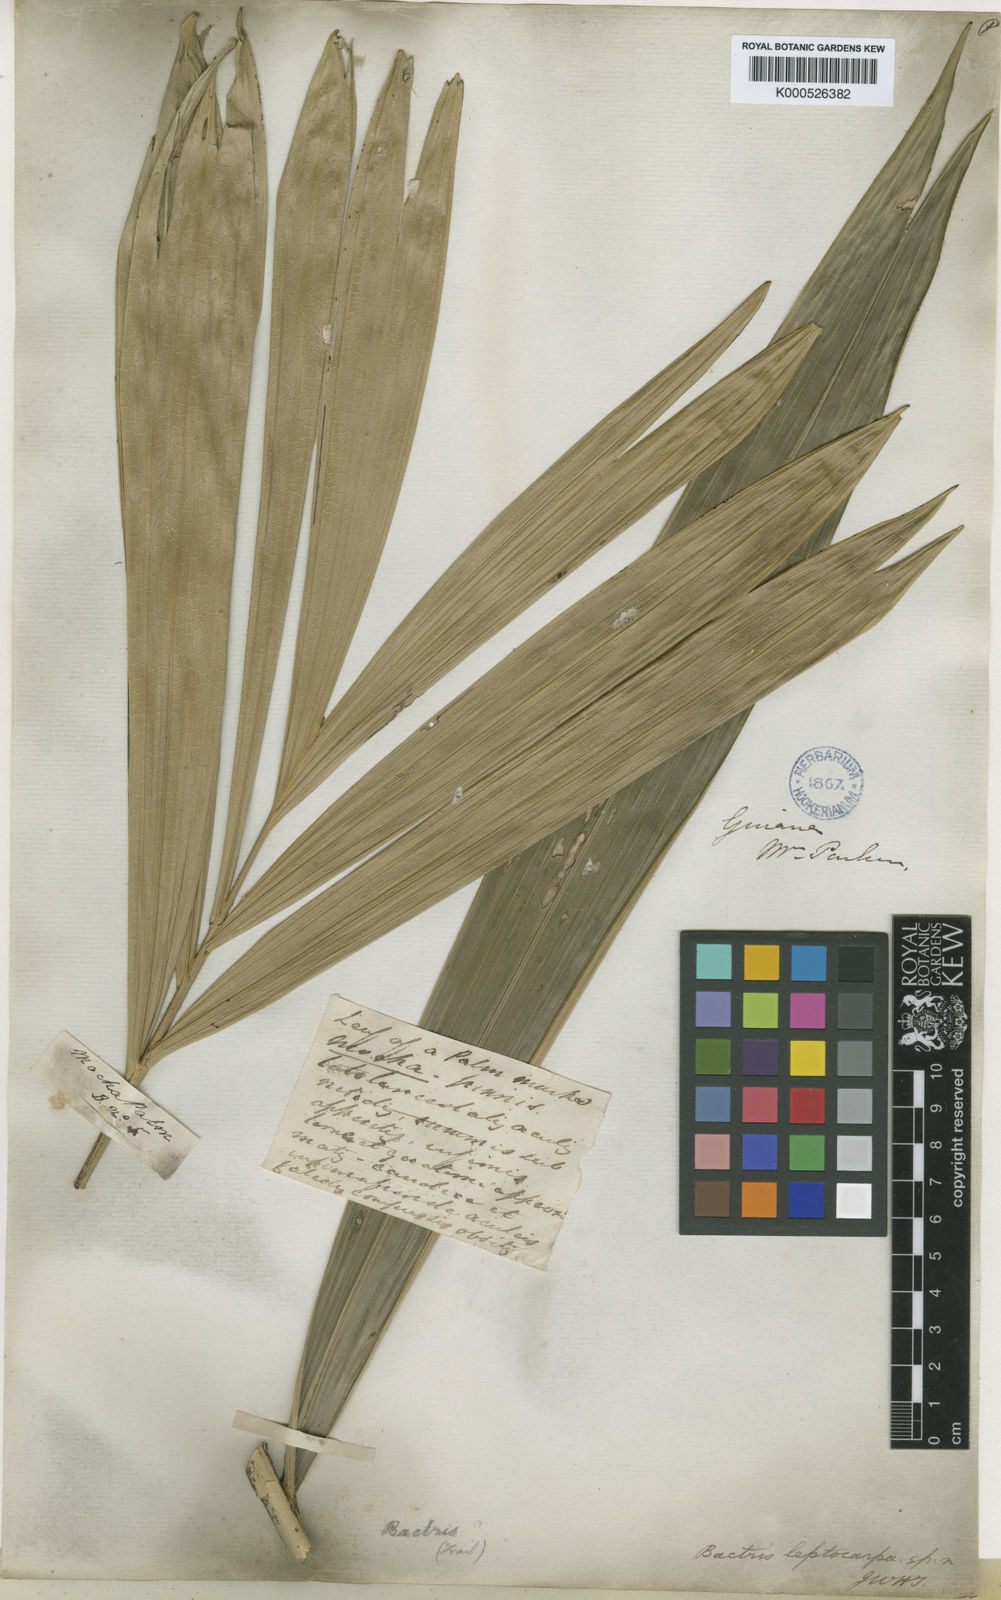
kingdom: Plantae
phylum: Tracheophyta
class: Liliopsida
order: Arecales
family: Arecaceae
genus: Bactris
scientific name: Bactris campestris
